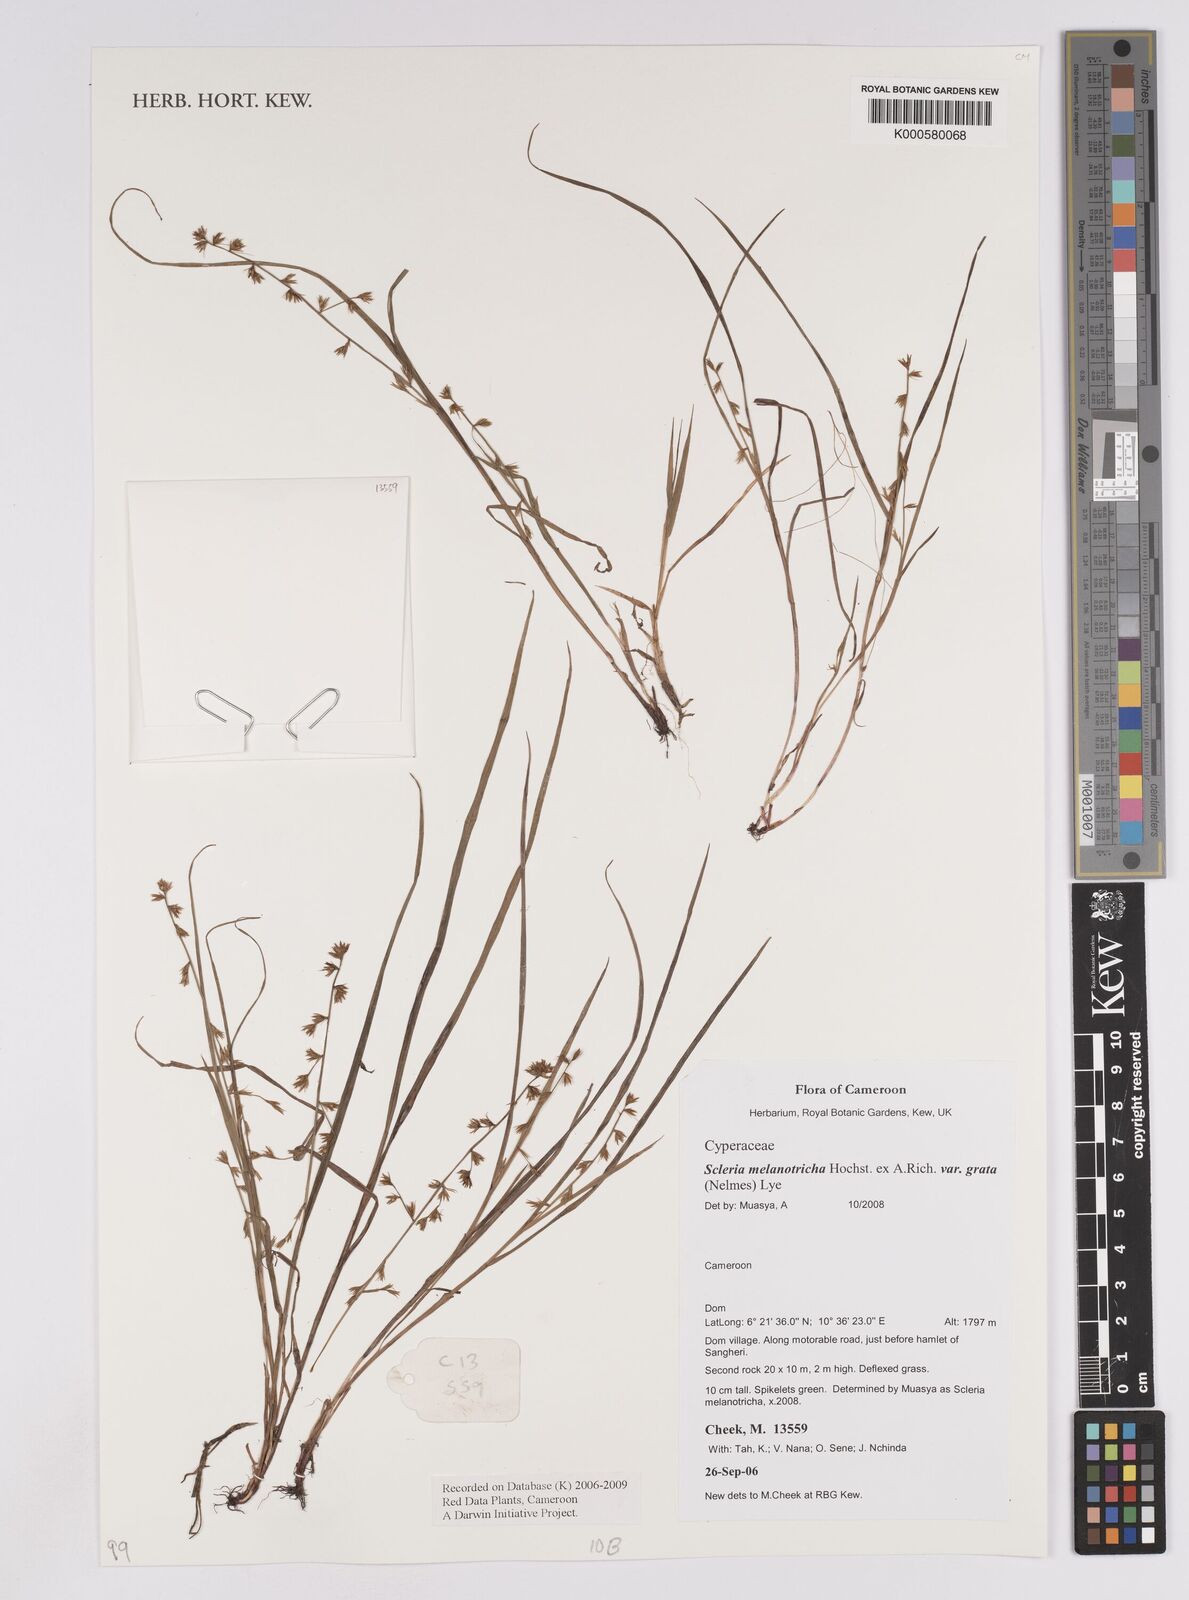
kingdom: Plantae
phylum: Tracheophyta
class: Liliopsida
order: Poales
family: Cyperaceae
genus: Scleria
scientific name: Scleria melanotricha
